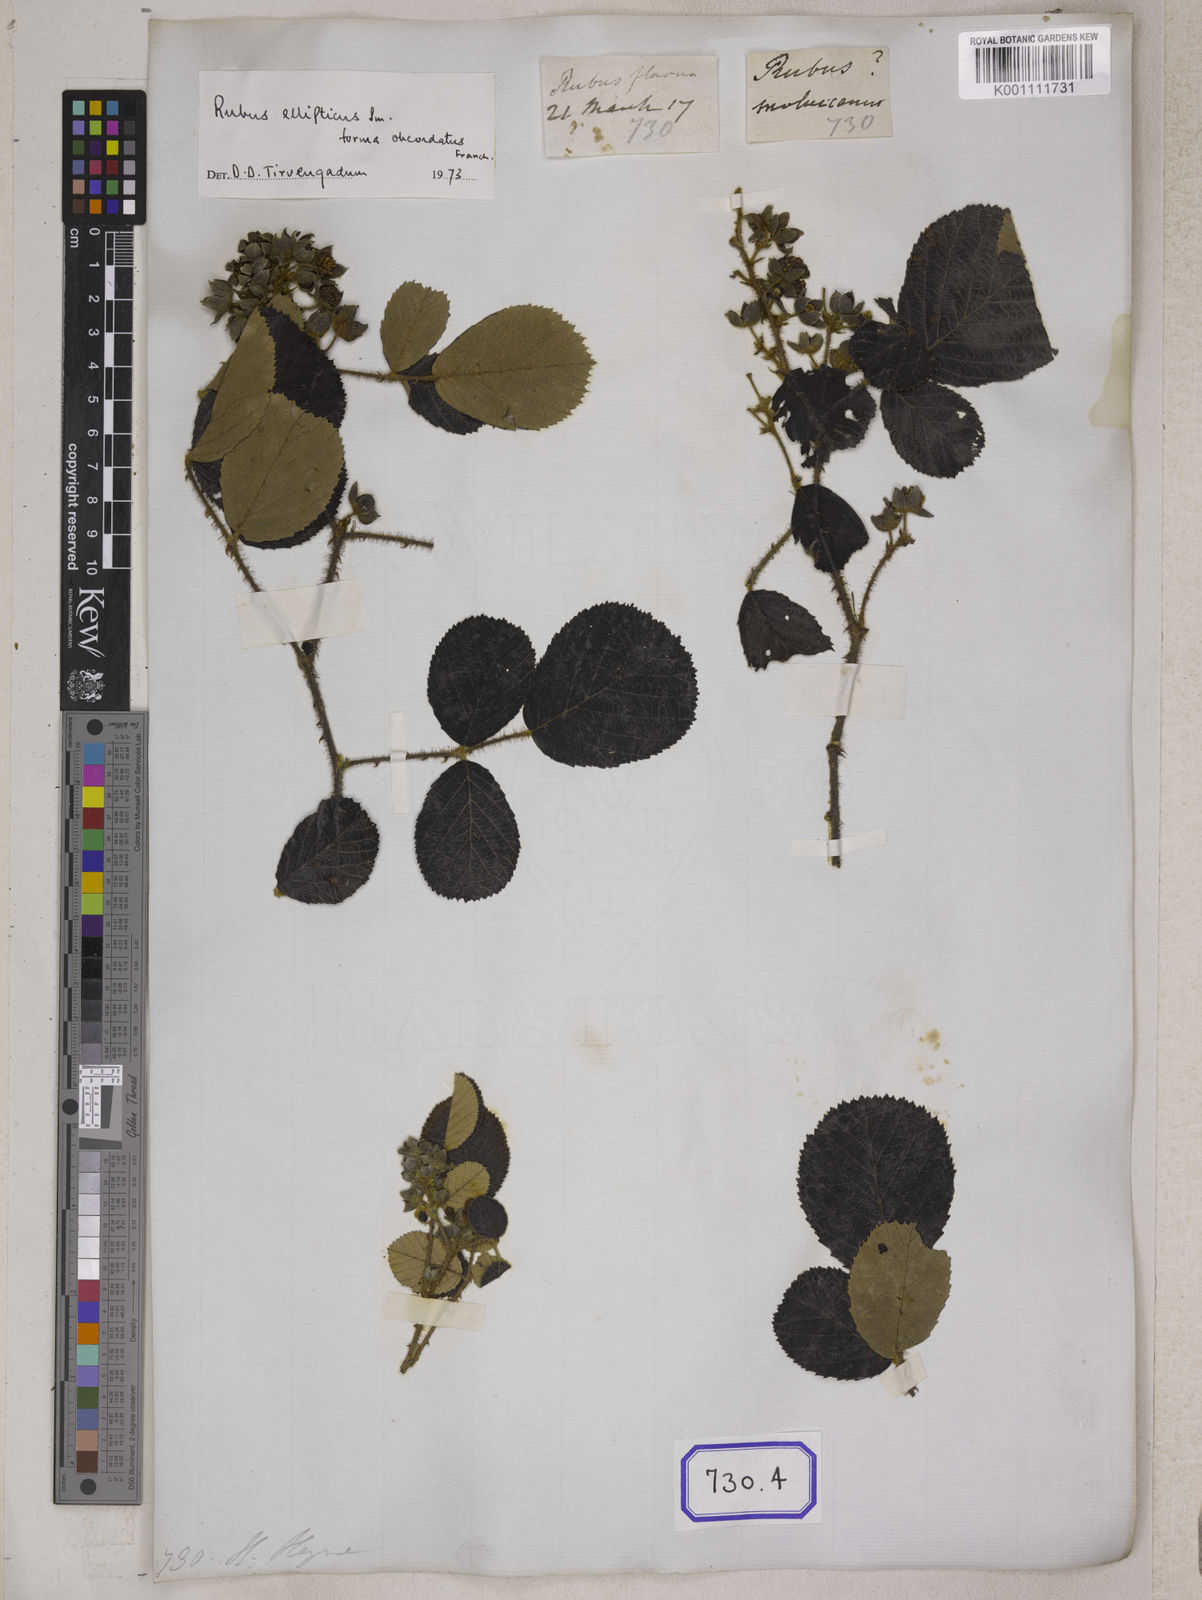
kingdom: Plantae
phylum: Tracheophyta
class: Magnoliopsida
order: Rosales
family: Rosaceae
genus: Rubus
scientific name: Rubus
